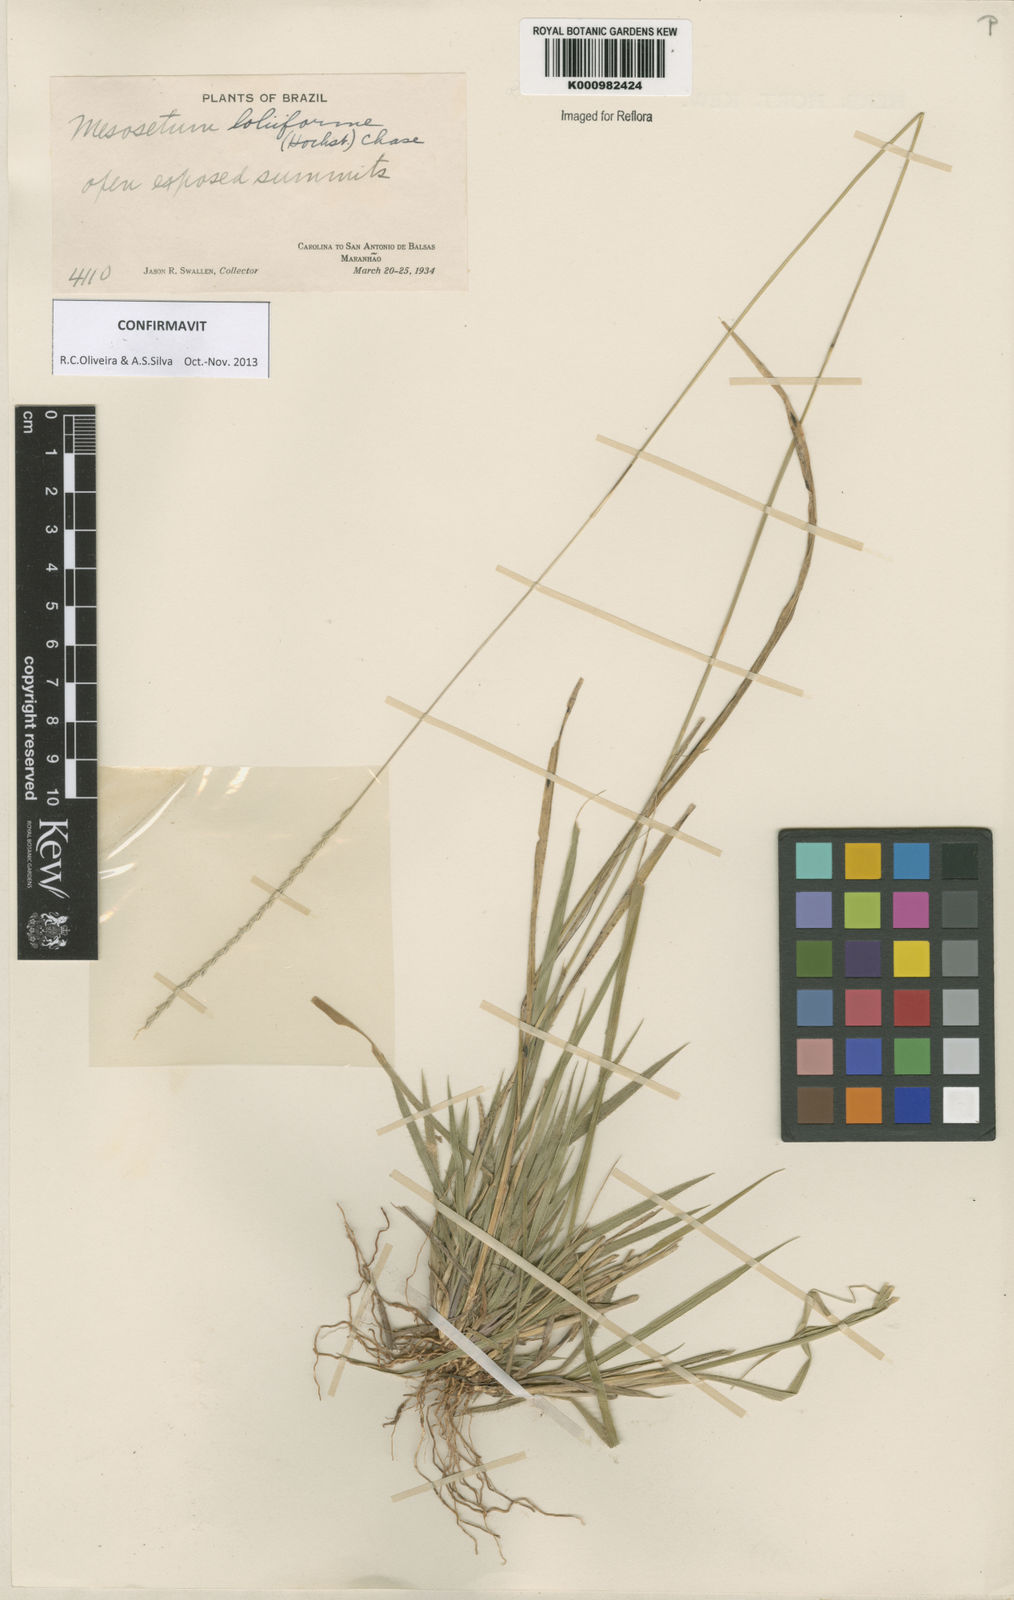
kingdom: Plantae
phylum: Tracheophyta
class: Liliopsida
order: Poales
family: Poaceae
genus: Mesosetum
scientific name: Mesosetum
